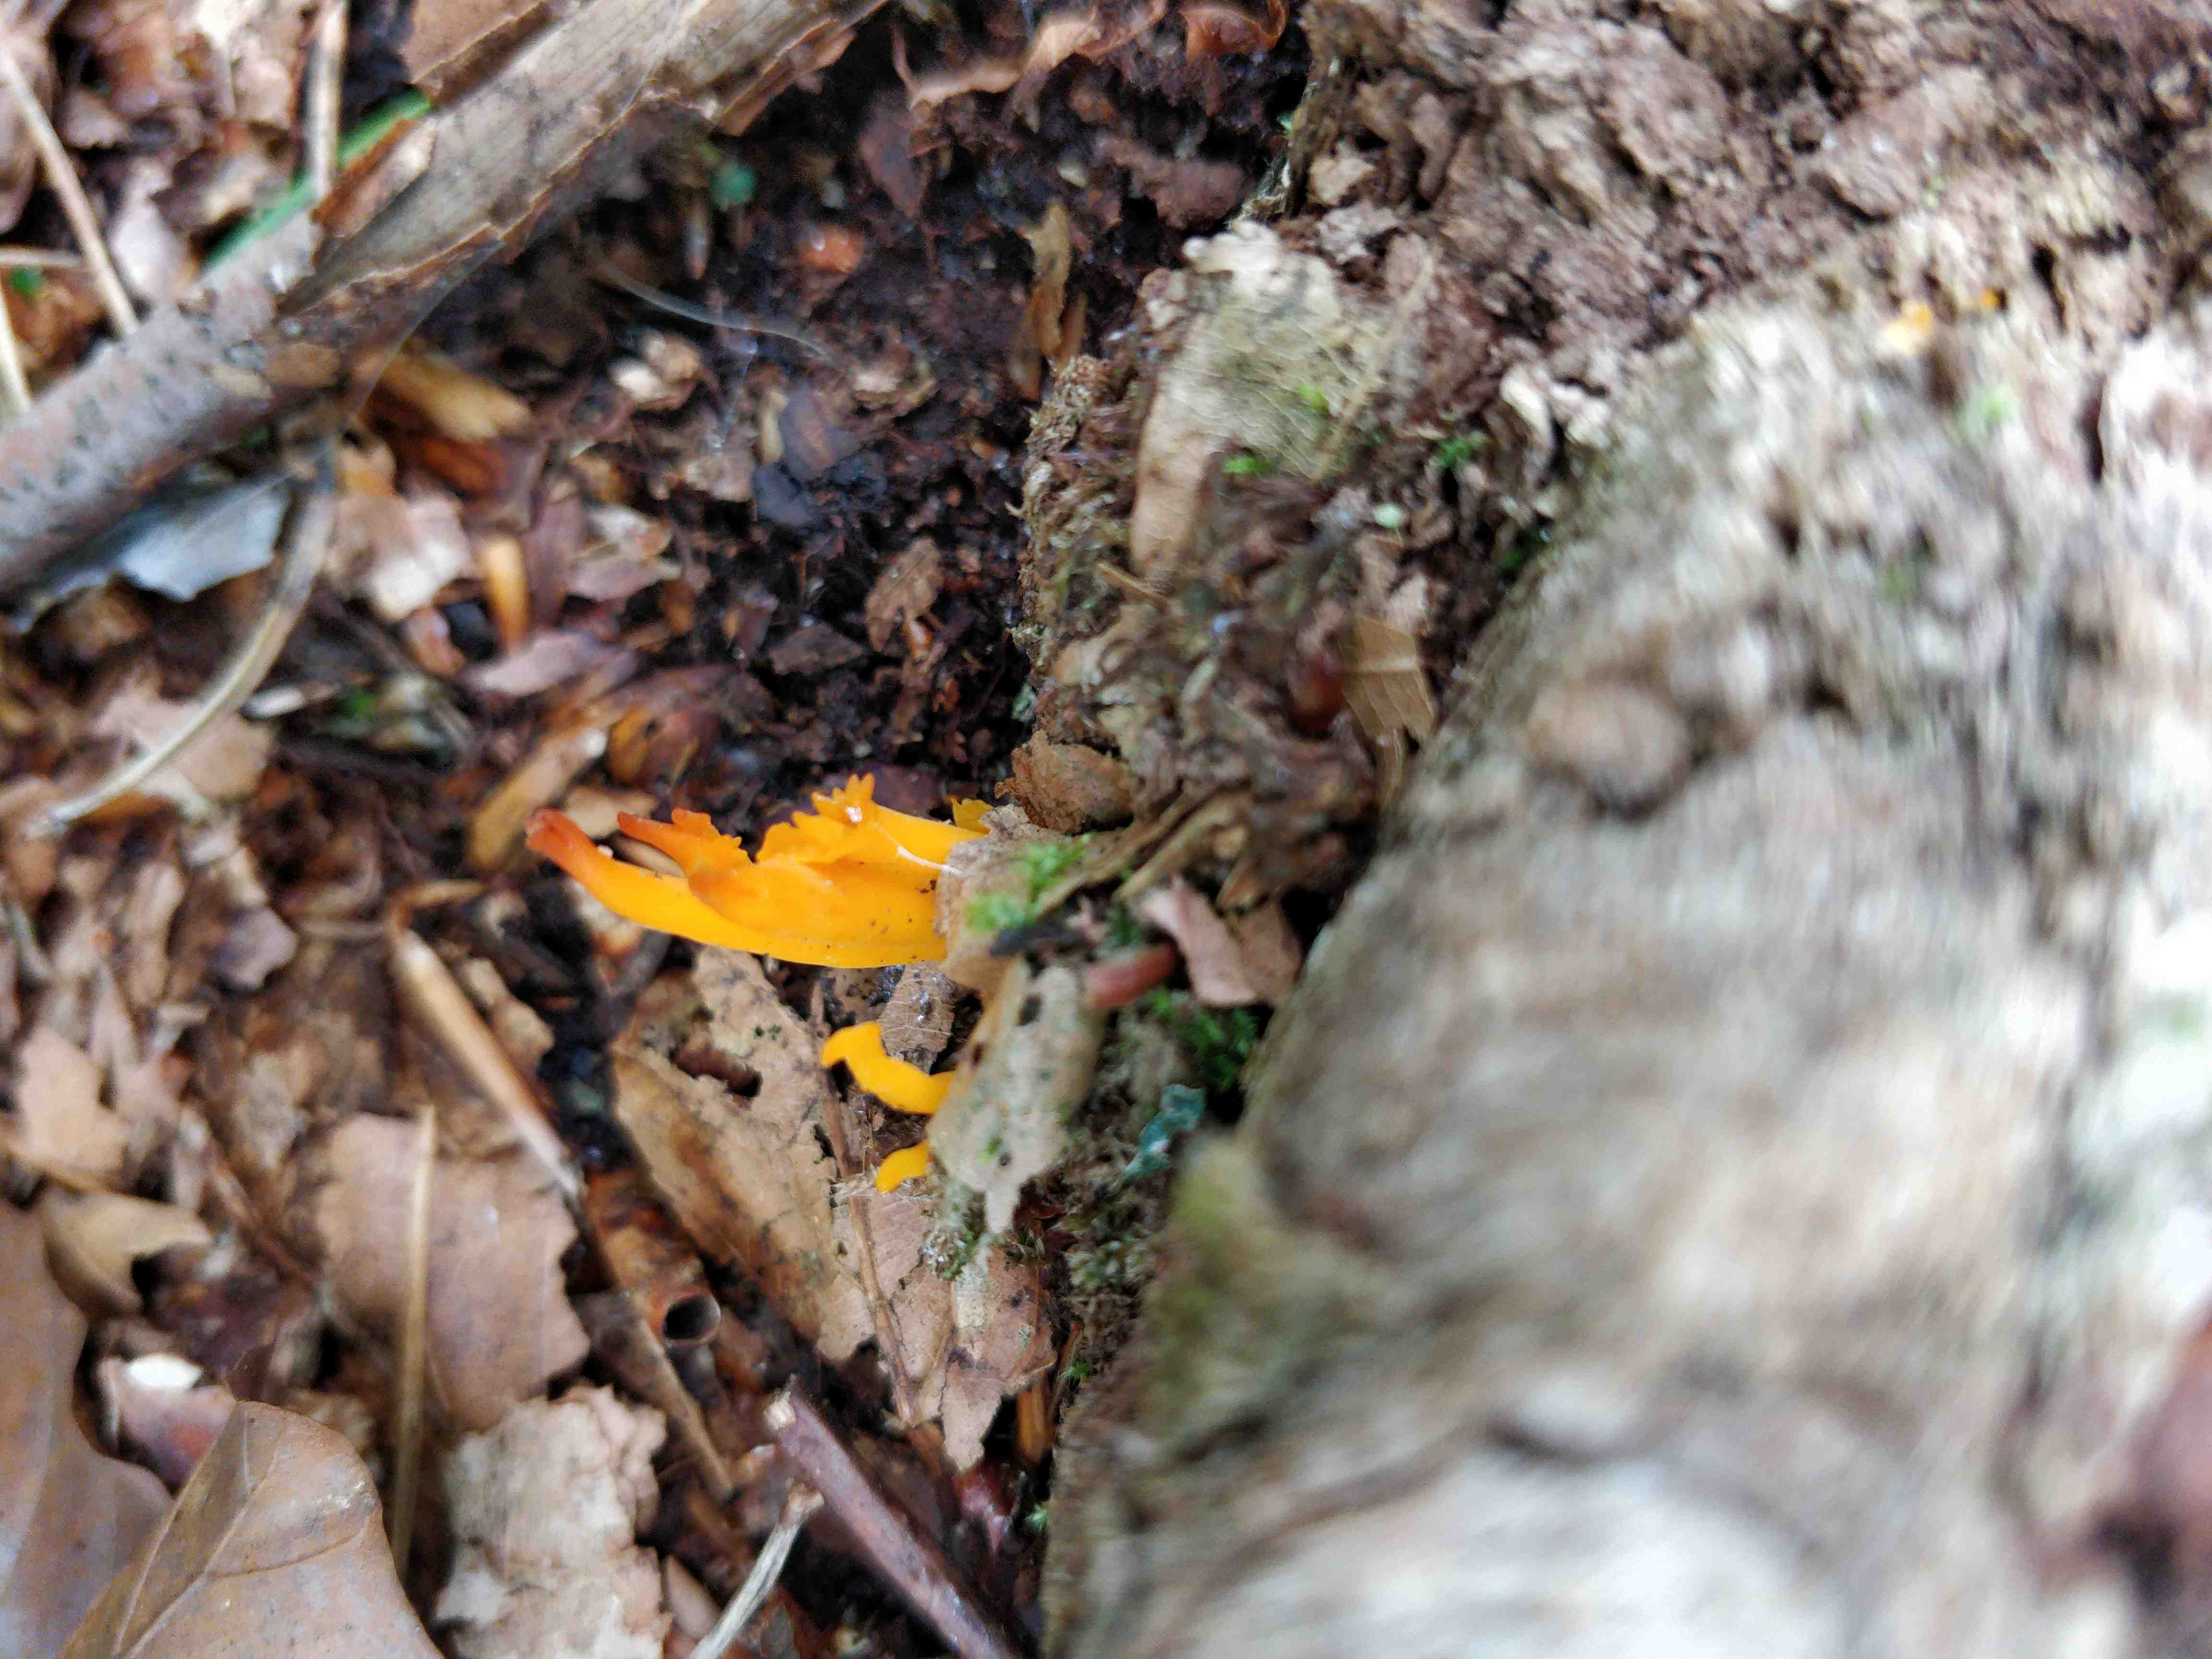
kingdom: Fungi
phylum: Basidiomycota
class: Dacrymycetes
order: Dacrymycetales
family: Dacrymycetaceae
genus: Calocera
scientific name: Calocera viscosa
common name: almindelig guldgaffel
